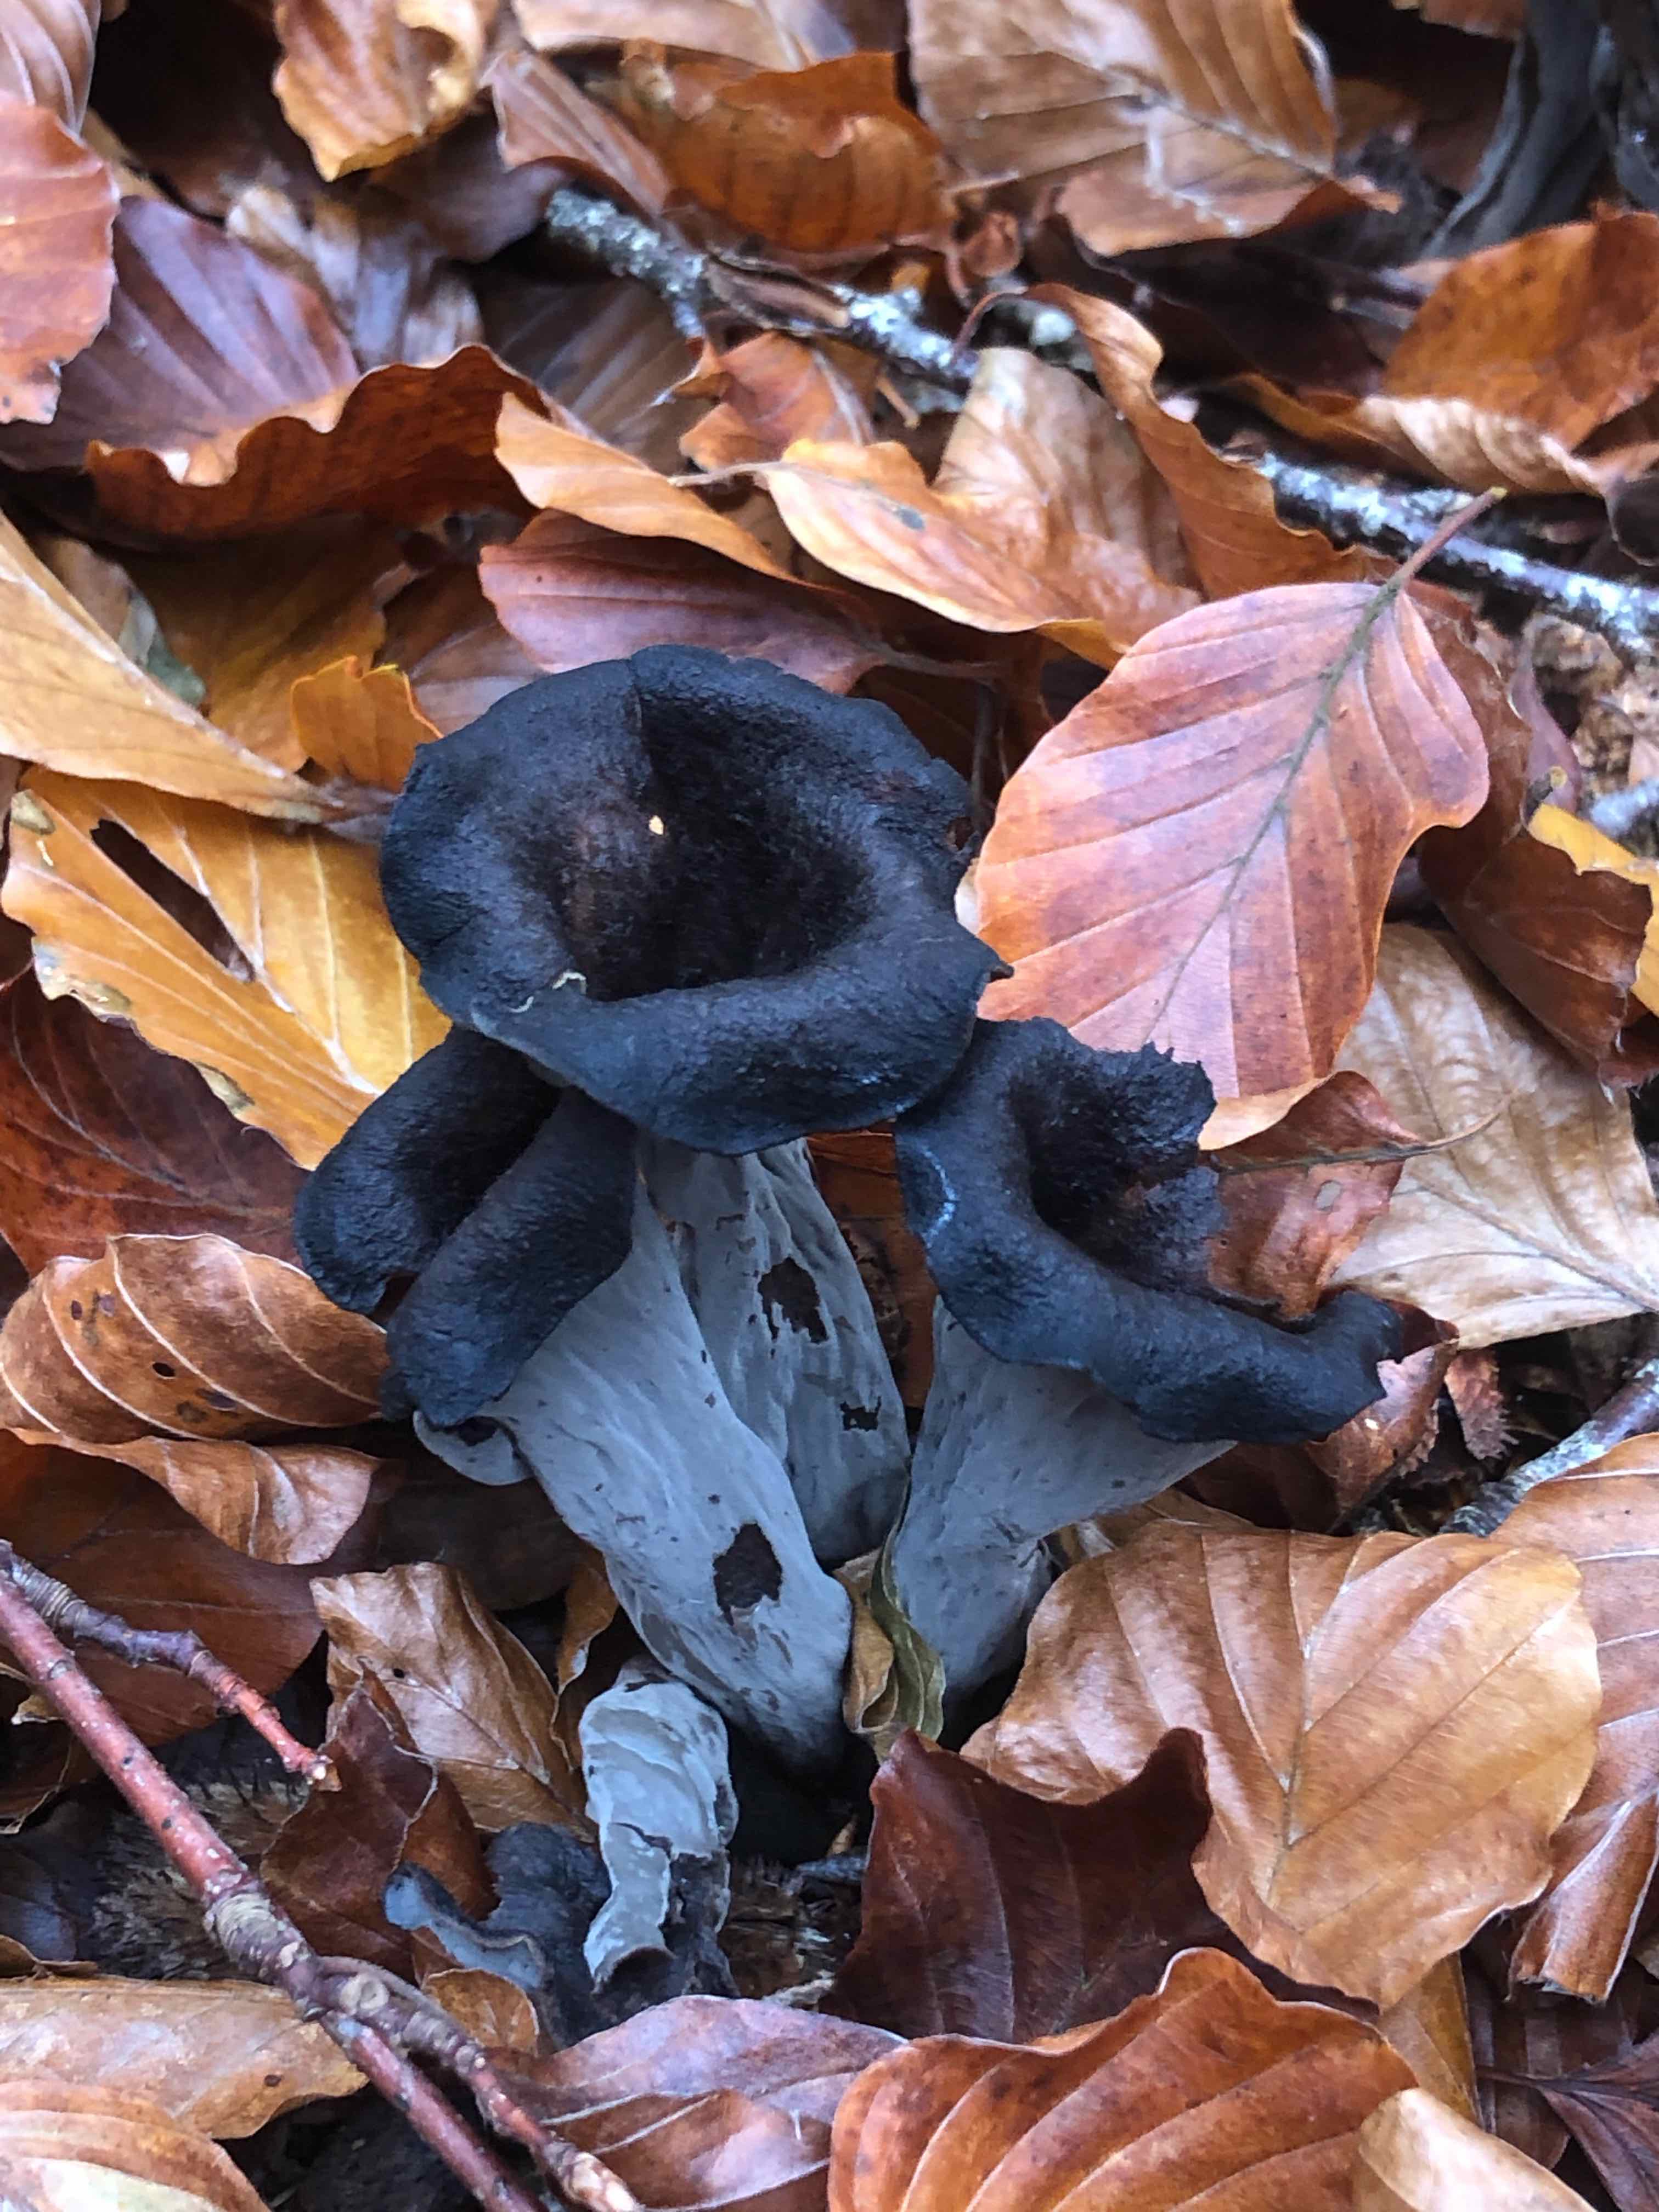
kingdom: Fungi
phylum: Basidiomycota
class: Agaricomycetes
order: Cantharellales
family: Hydnaceae
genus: Craterellus
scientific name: Craterellus cornucopioides
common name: trompetsvamp
